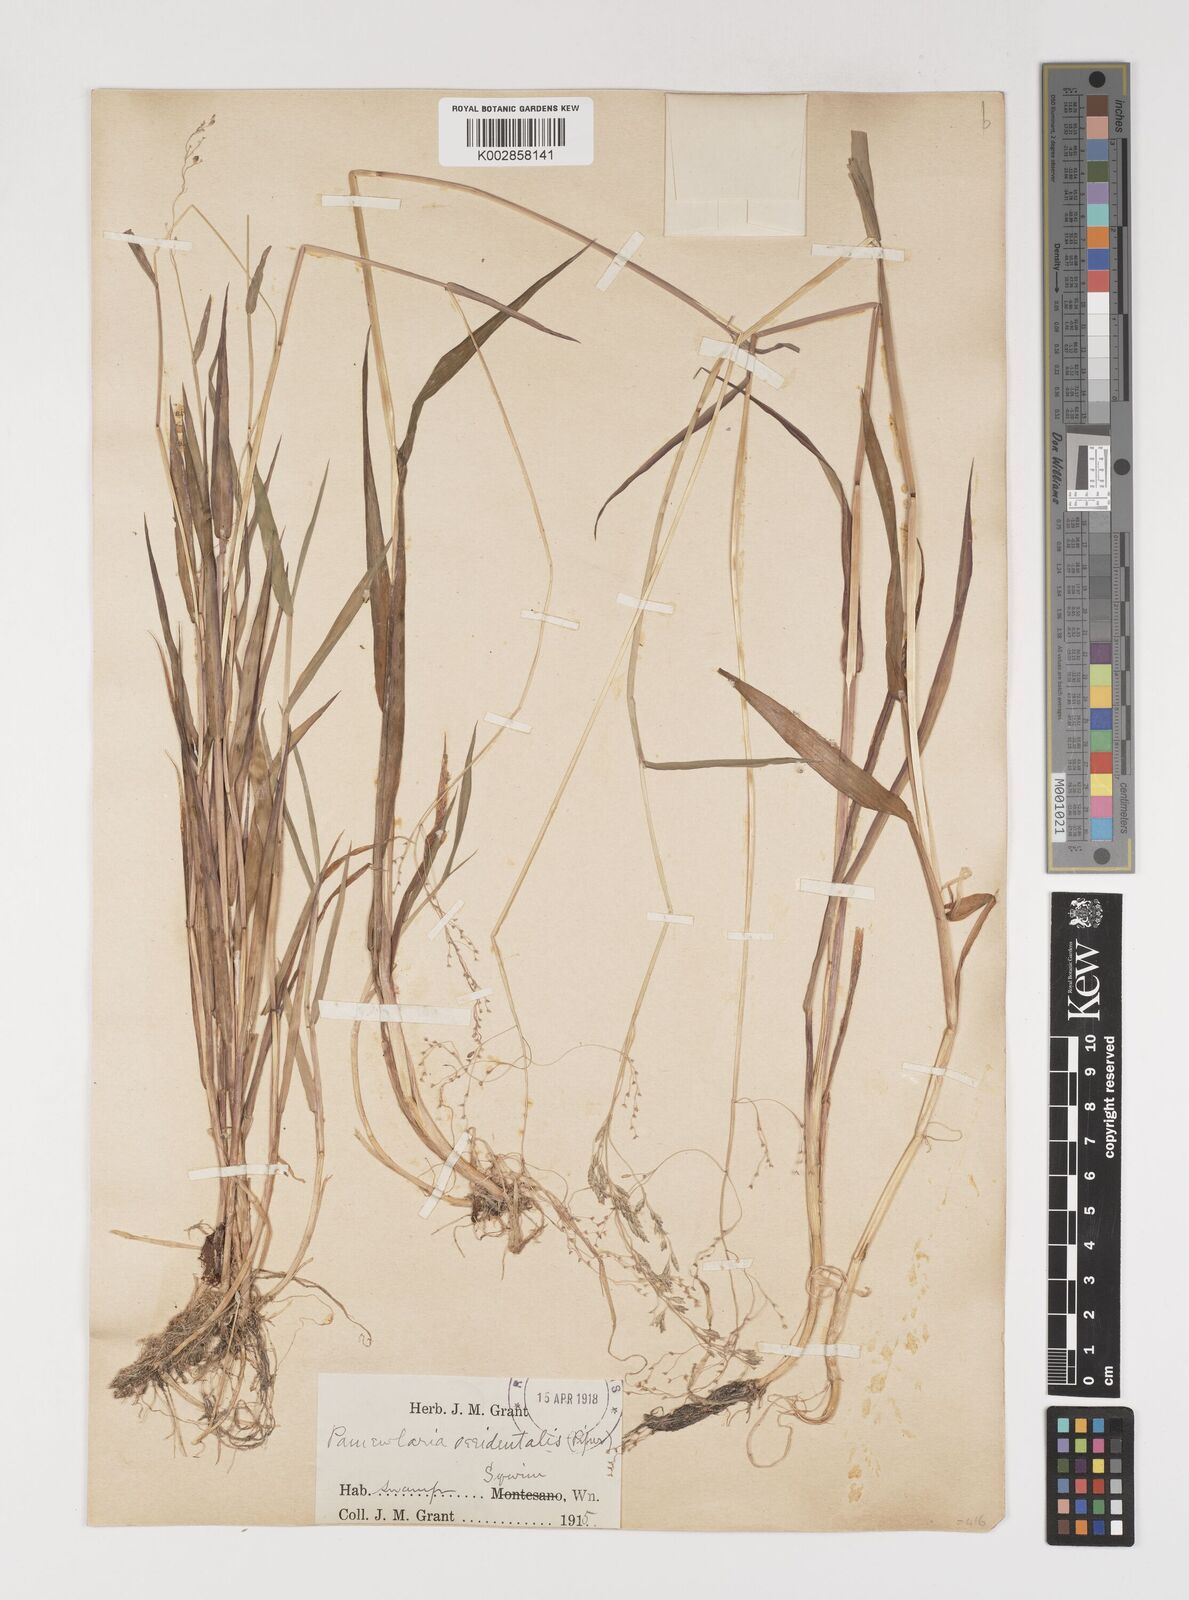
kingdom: Plantae
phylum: Tracheophyta
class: Liliopsida
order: Poales
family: Poaceae
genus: Torreyochloa
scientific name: Torreyochloa pallida
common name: Pale false mannagrass
